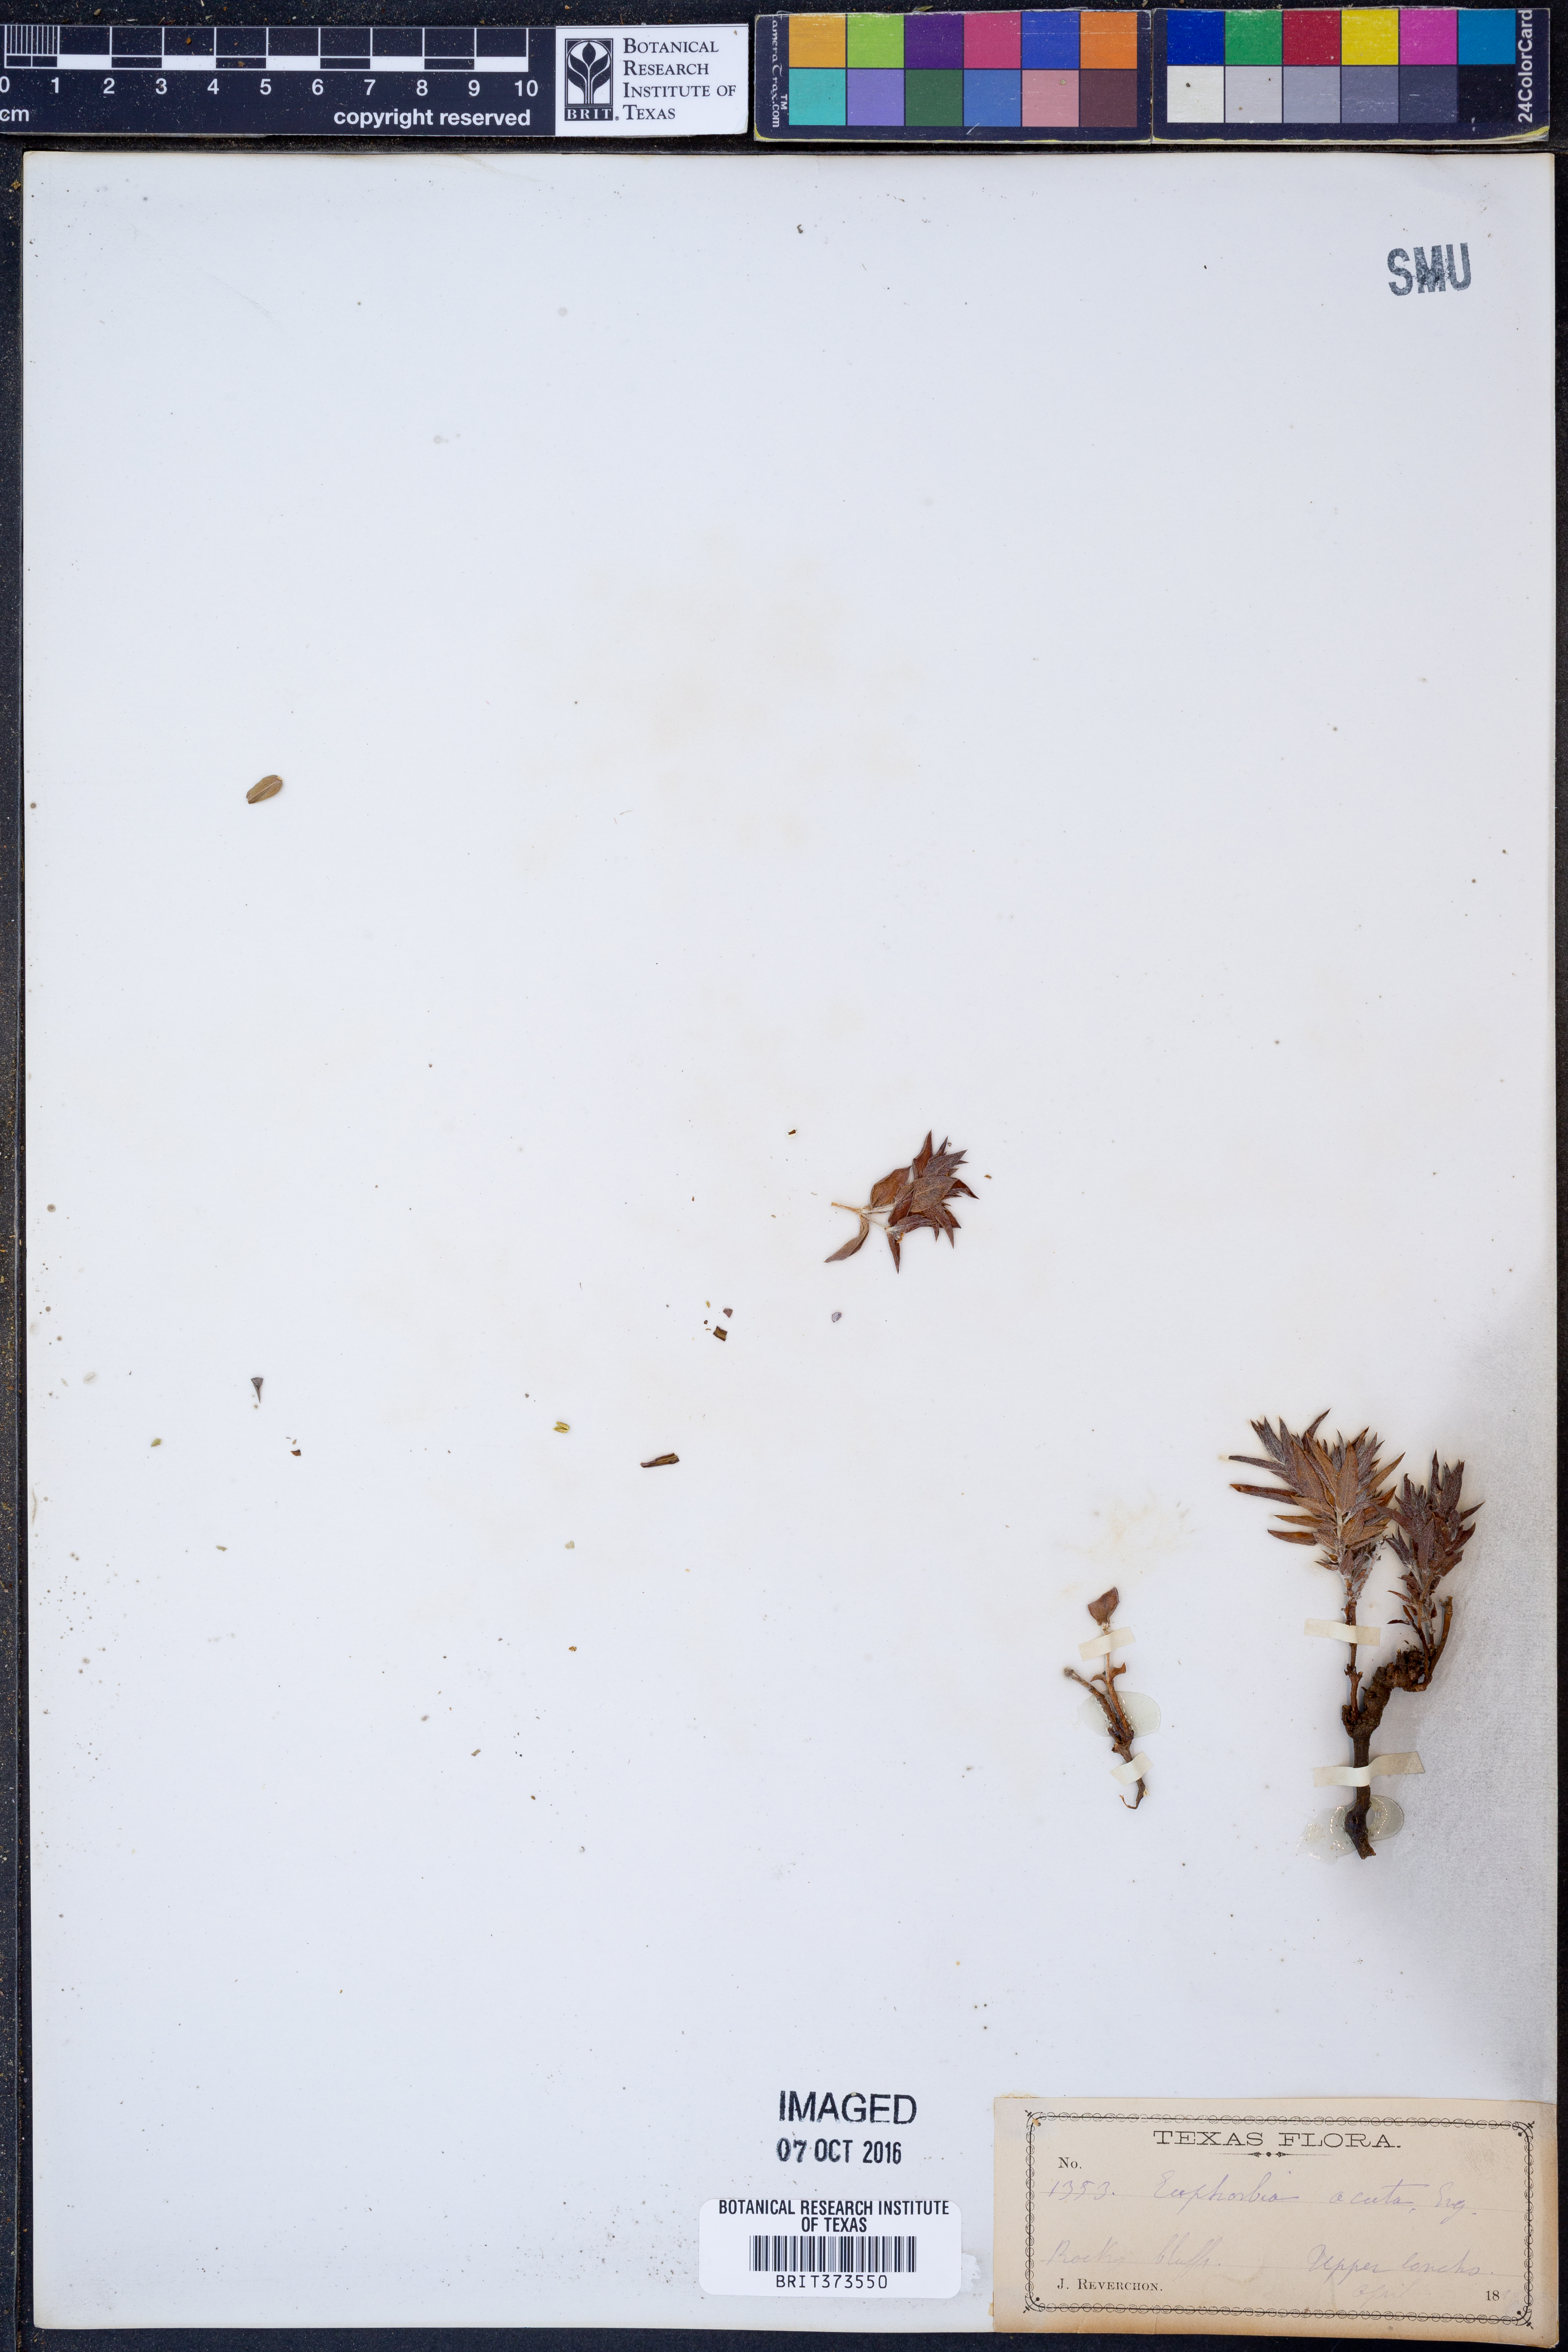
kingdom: Plantae
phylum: Tracheophyta
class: Magnoliopsida
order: Malpighiales
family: Euphorbiaceae
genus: Euphorbia
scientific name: Euphorbia acuta
